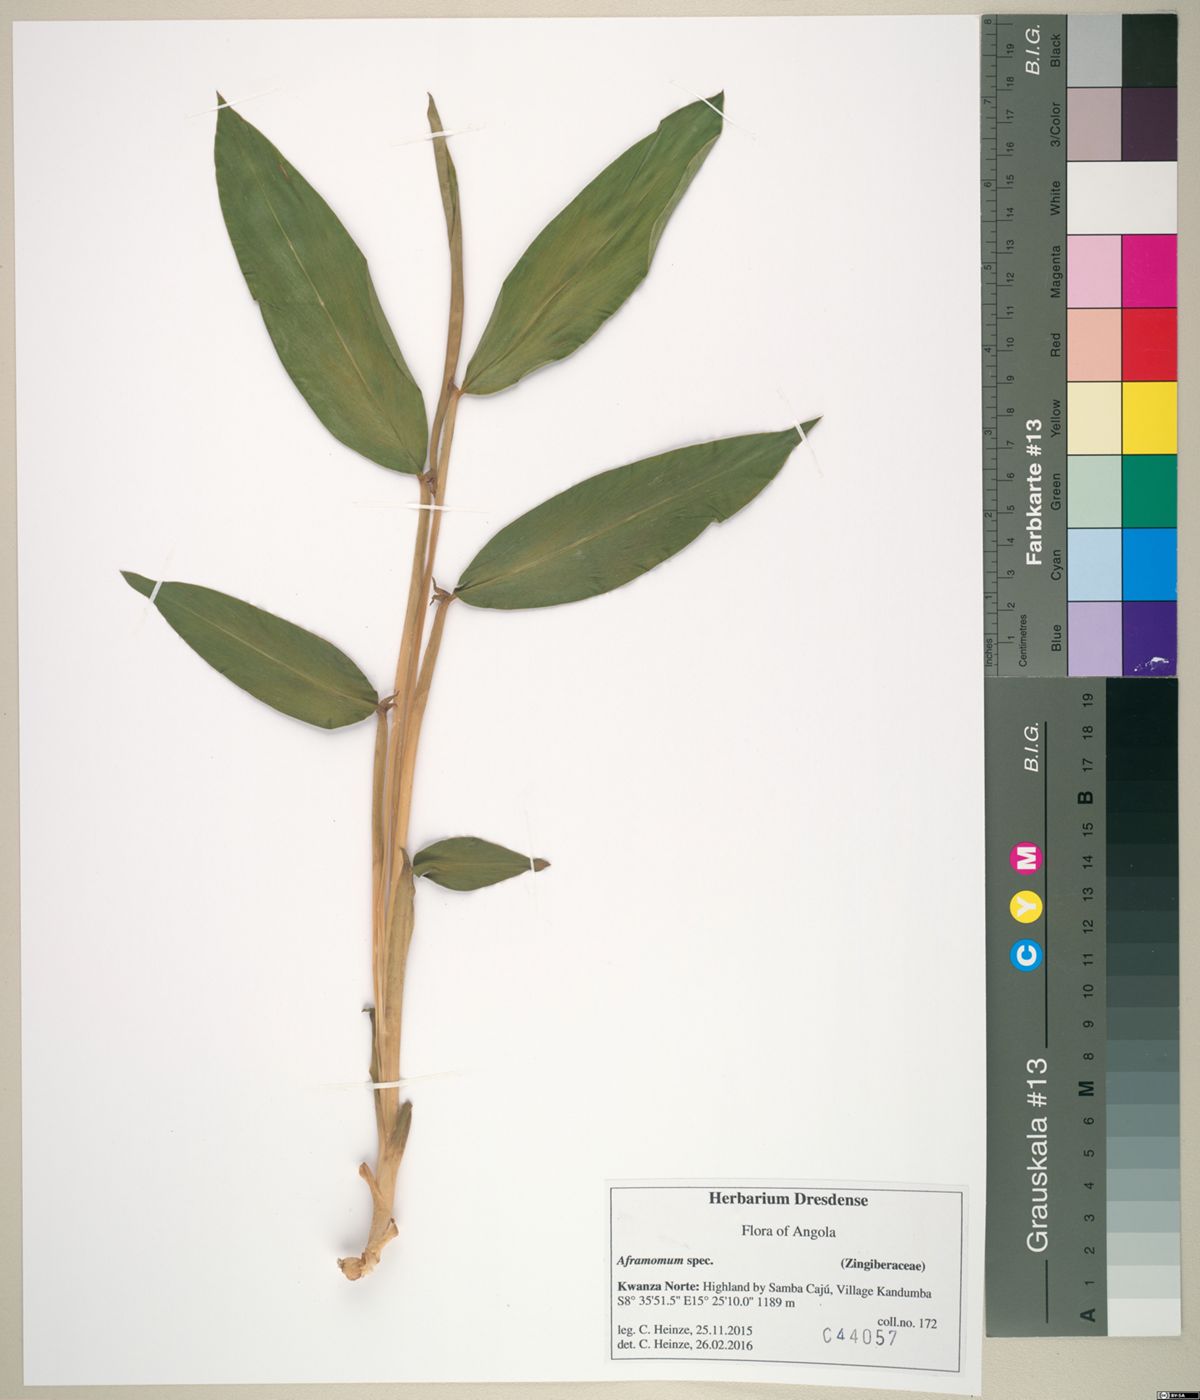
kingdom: Plantae
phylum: Tracheophyta
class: Liliopsida
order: Zingiberales
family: Zingiberaceae
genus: Aframomum
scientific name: Aframomum
